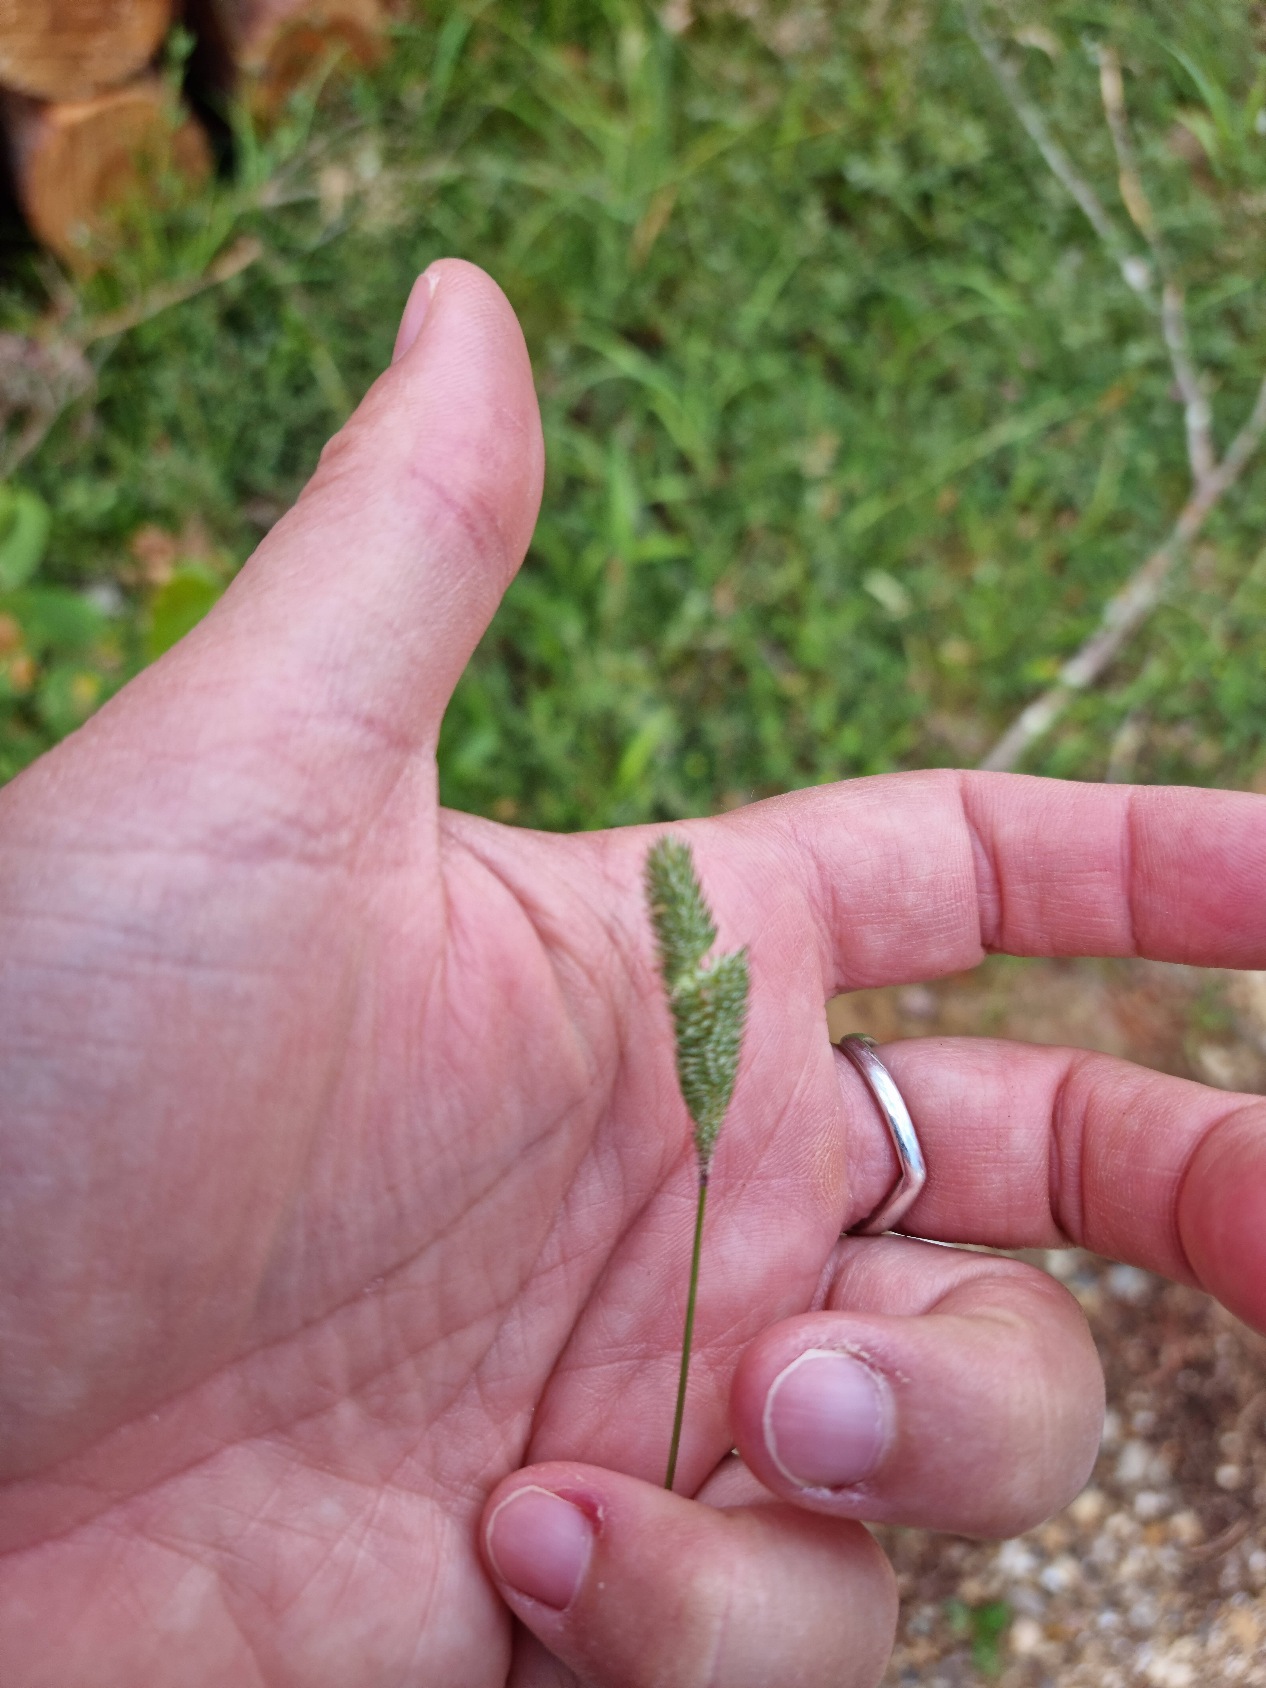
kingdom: Plantae
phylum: Tracheophyta
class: Liliopsida
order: Poales
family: Poaceae
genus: Phleum
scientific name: Phleum pratense
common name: Knold-rottehale
